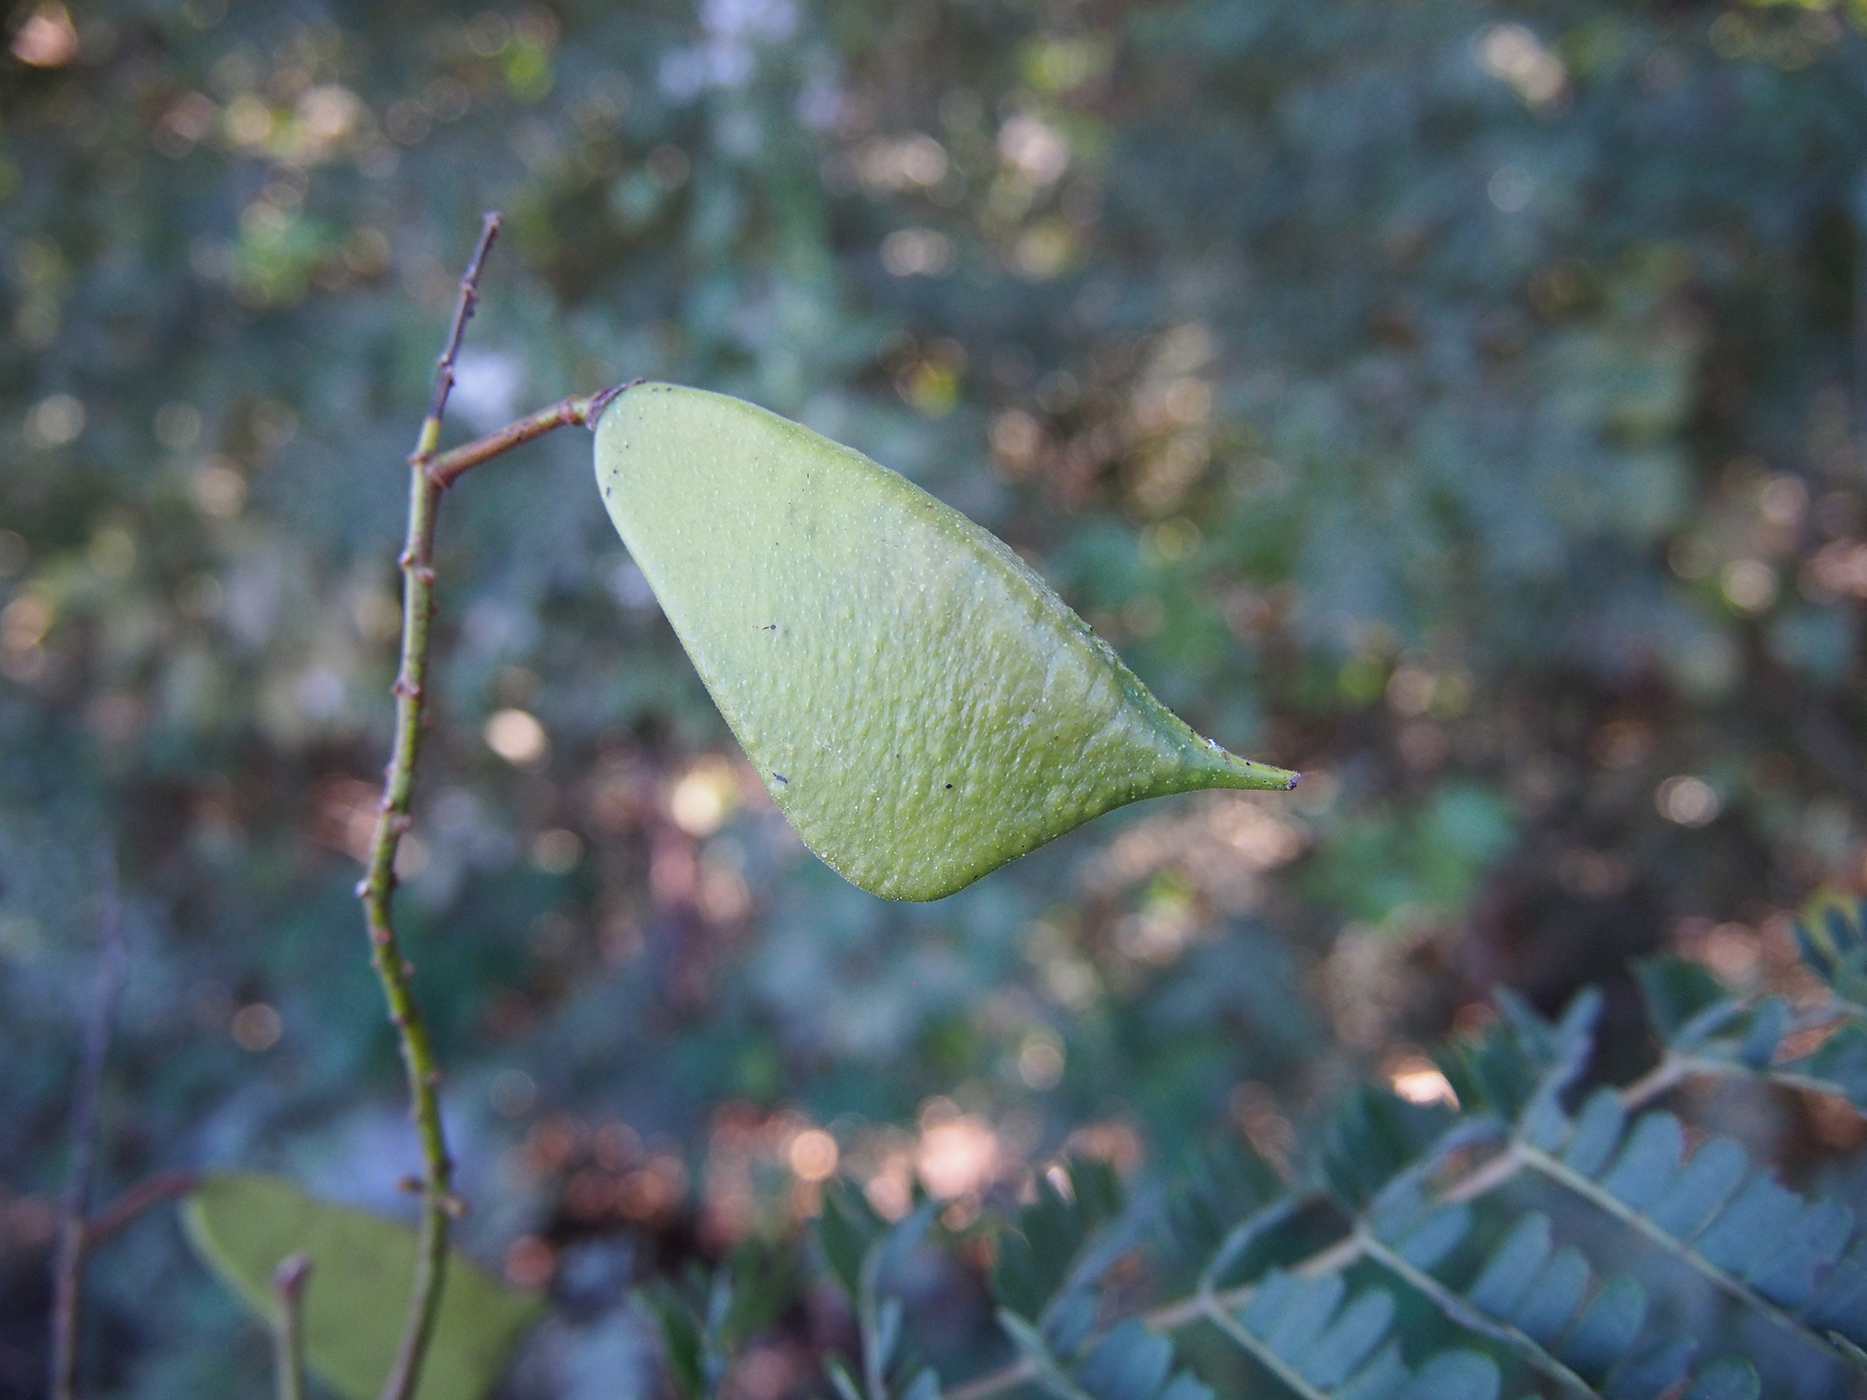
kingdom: Plantae
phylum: Tracheophyta
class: Magnoliopsida
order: Fabales
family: Fabaceae
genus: Biancaea
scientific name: Biancaea sappan
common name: Sappan
